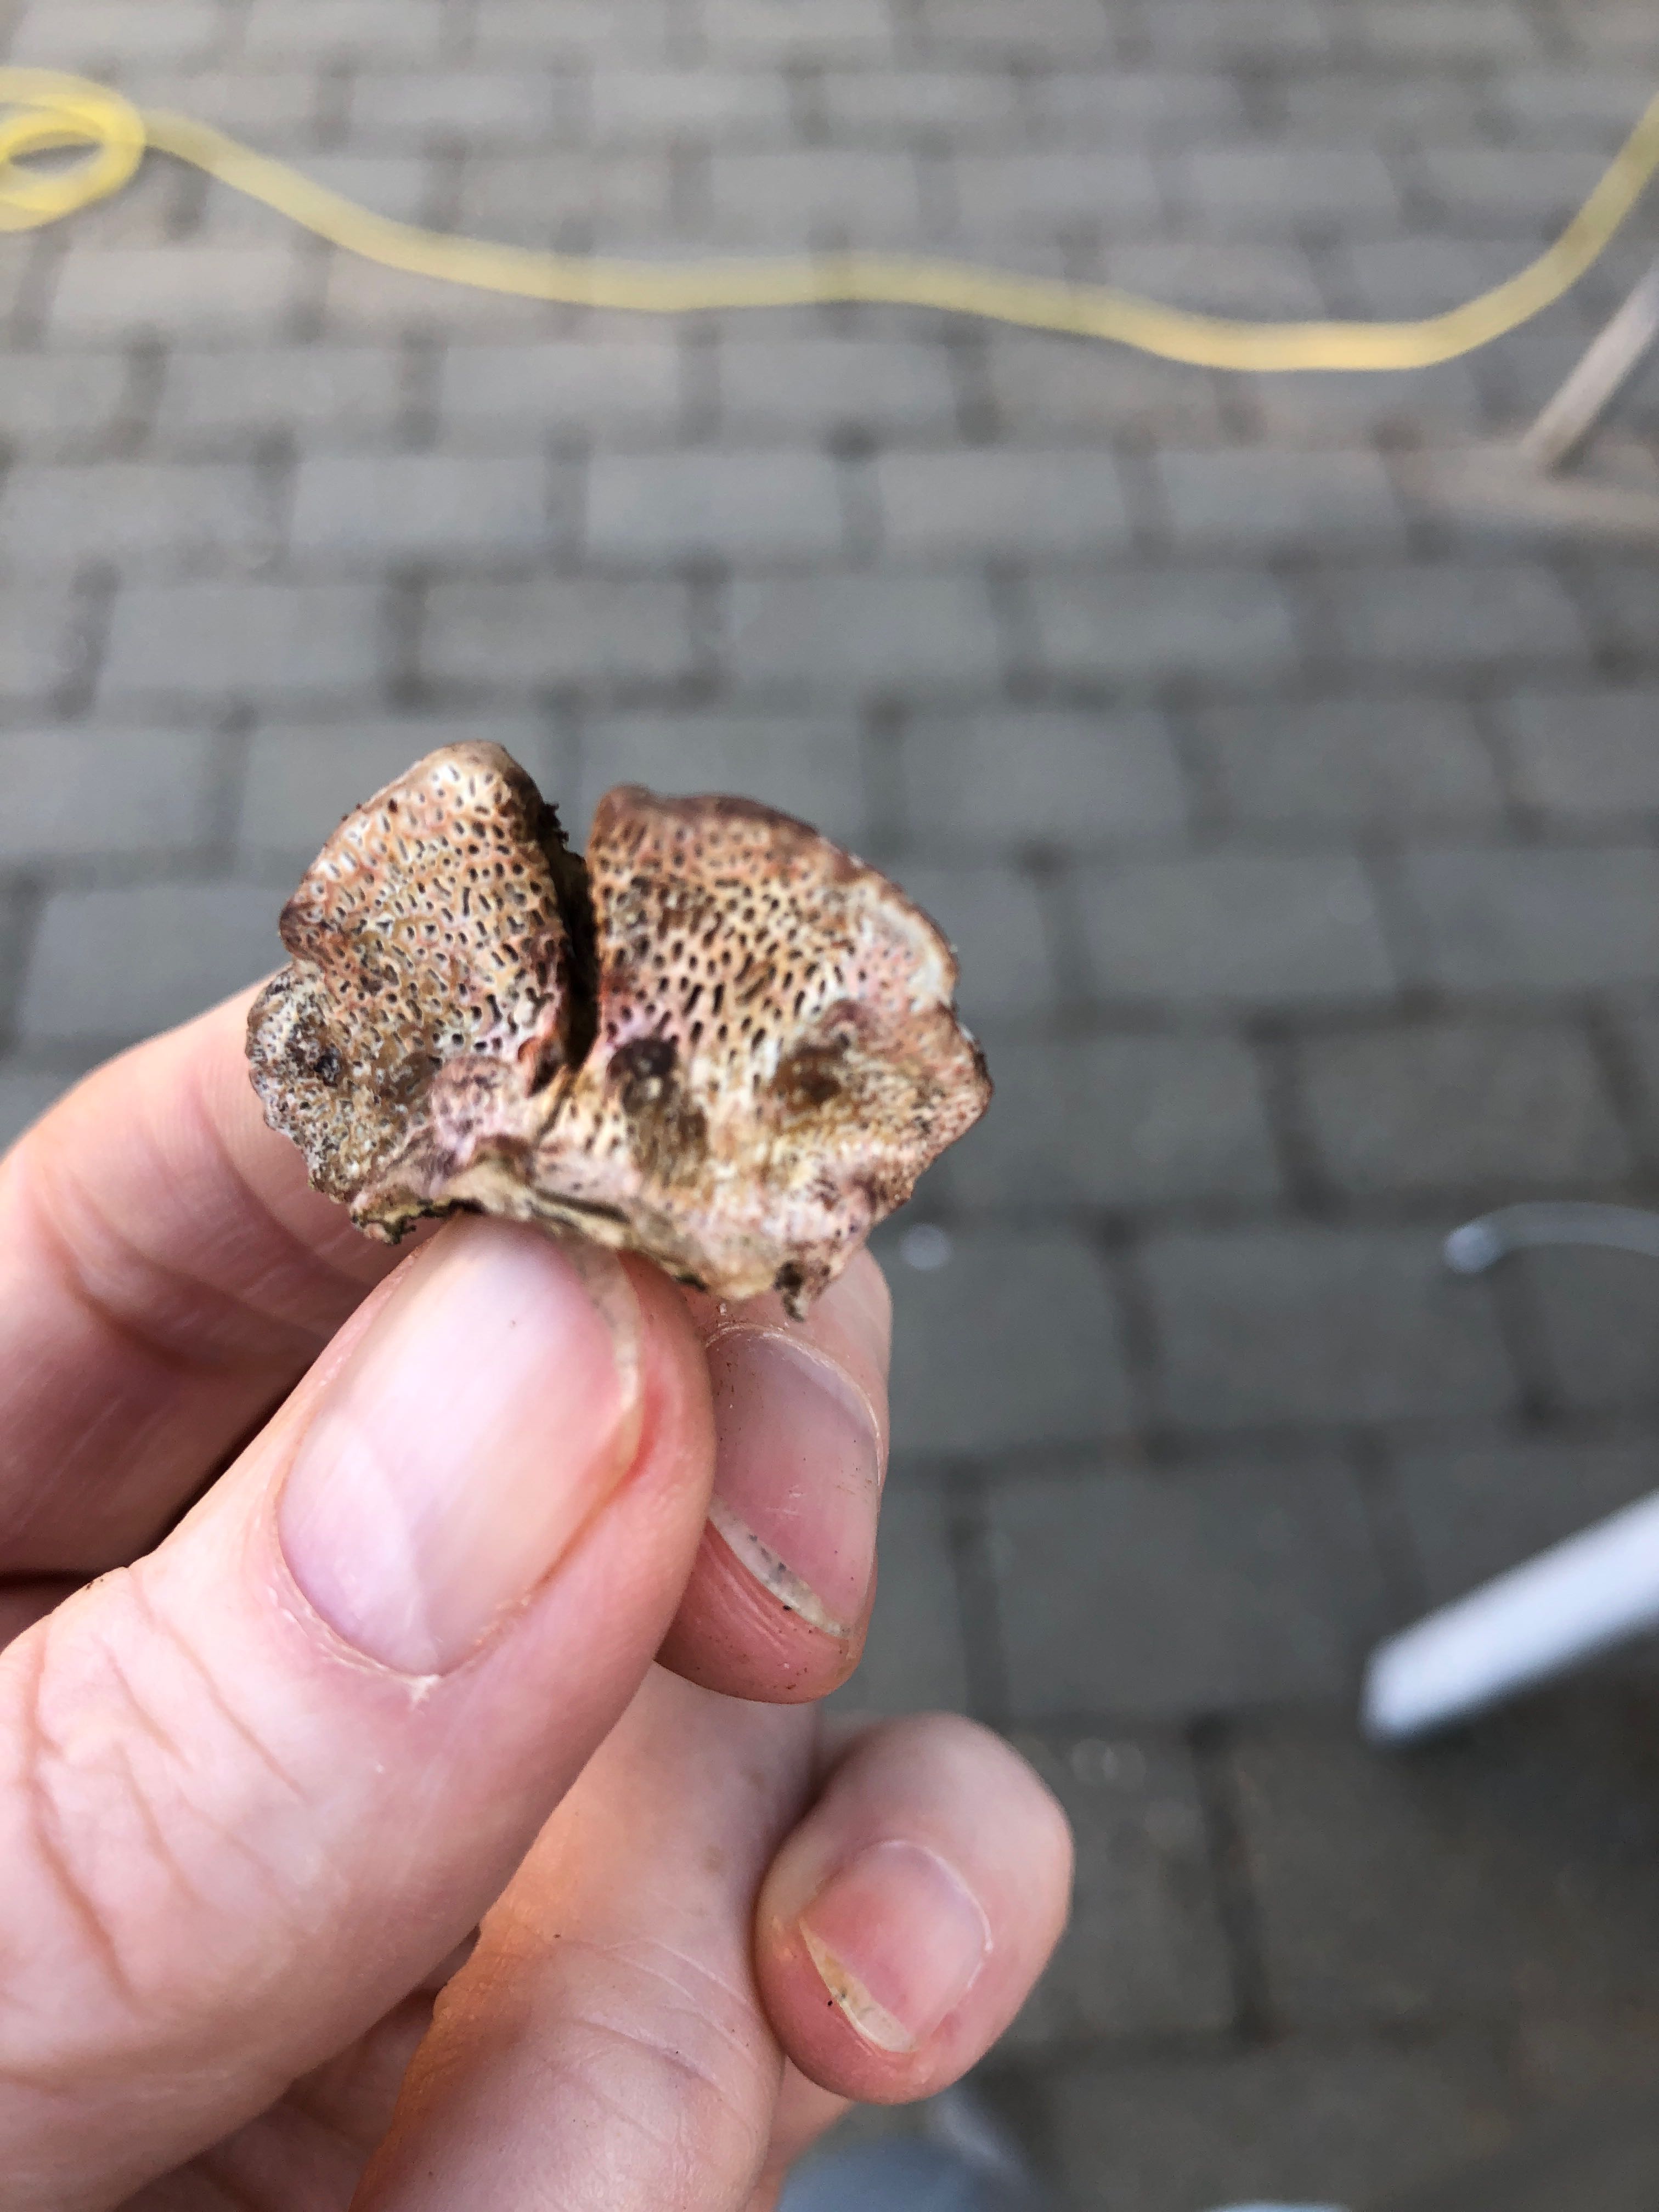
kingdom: Fungi
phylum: Basidiomycota
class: Agaricomycetes
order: Polyporales
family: Polyporaceae
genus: Daedaleopsis
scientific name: Daedaleopsis confragosa
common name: rødmende læderporesvamp
